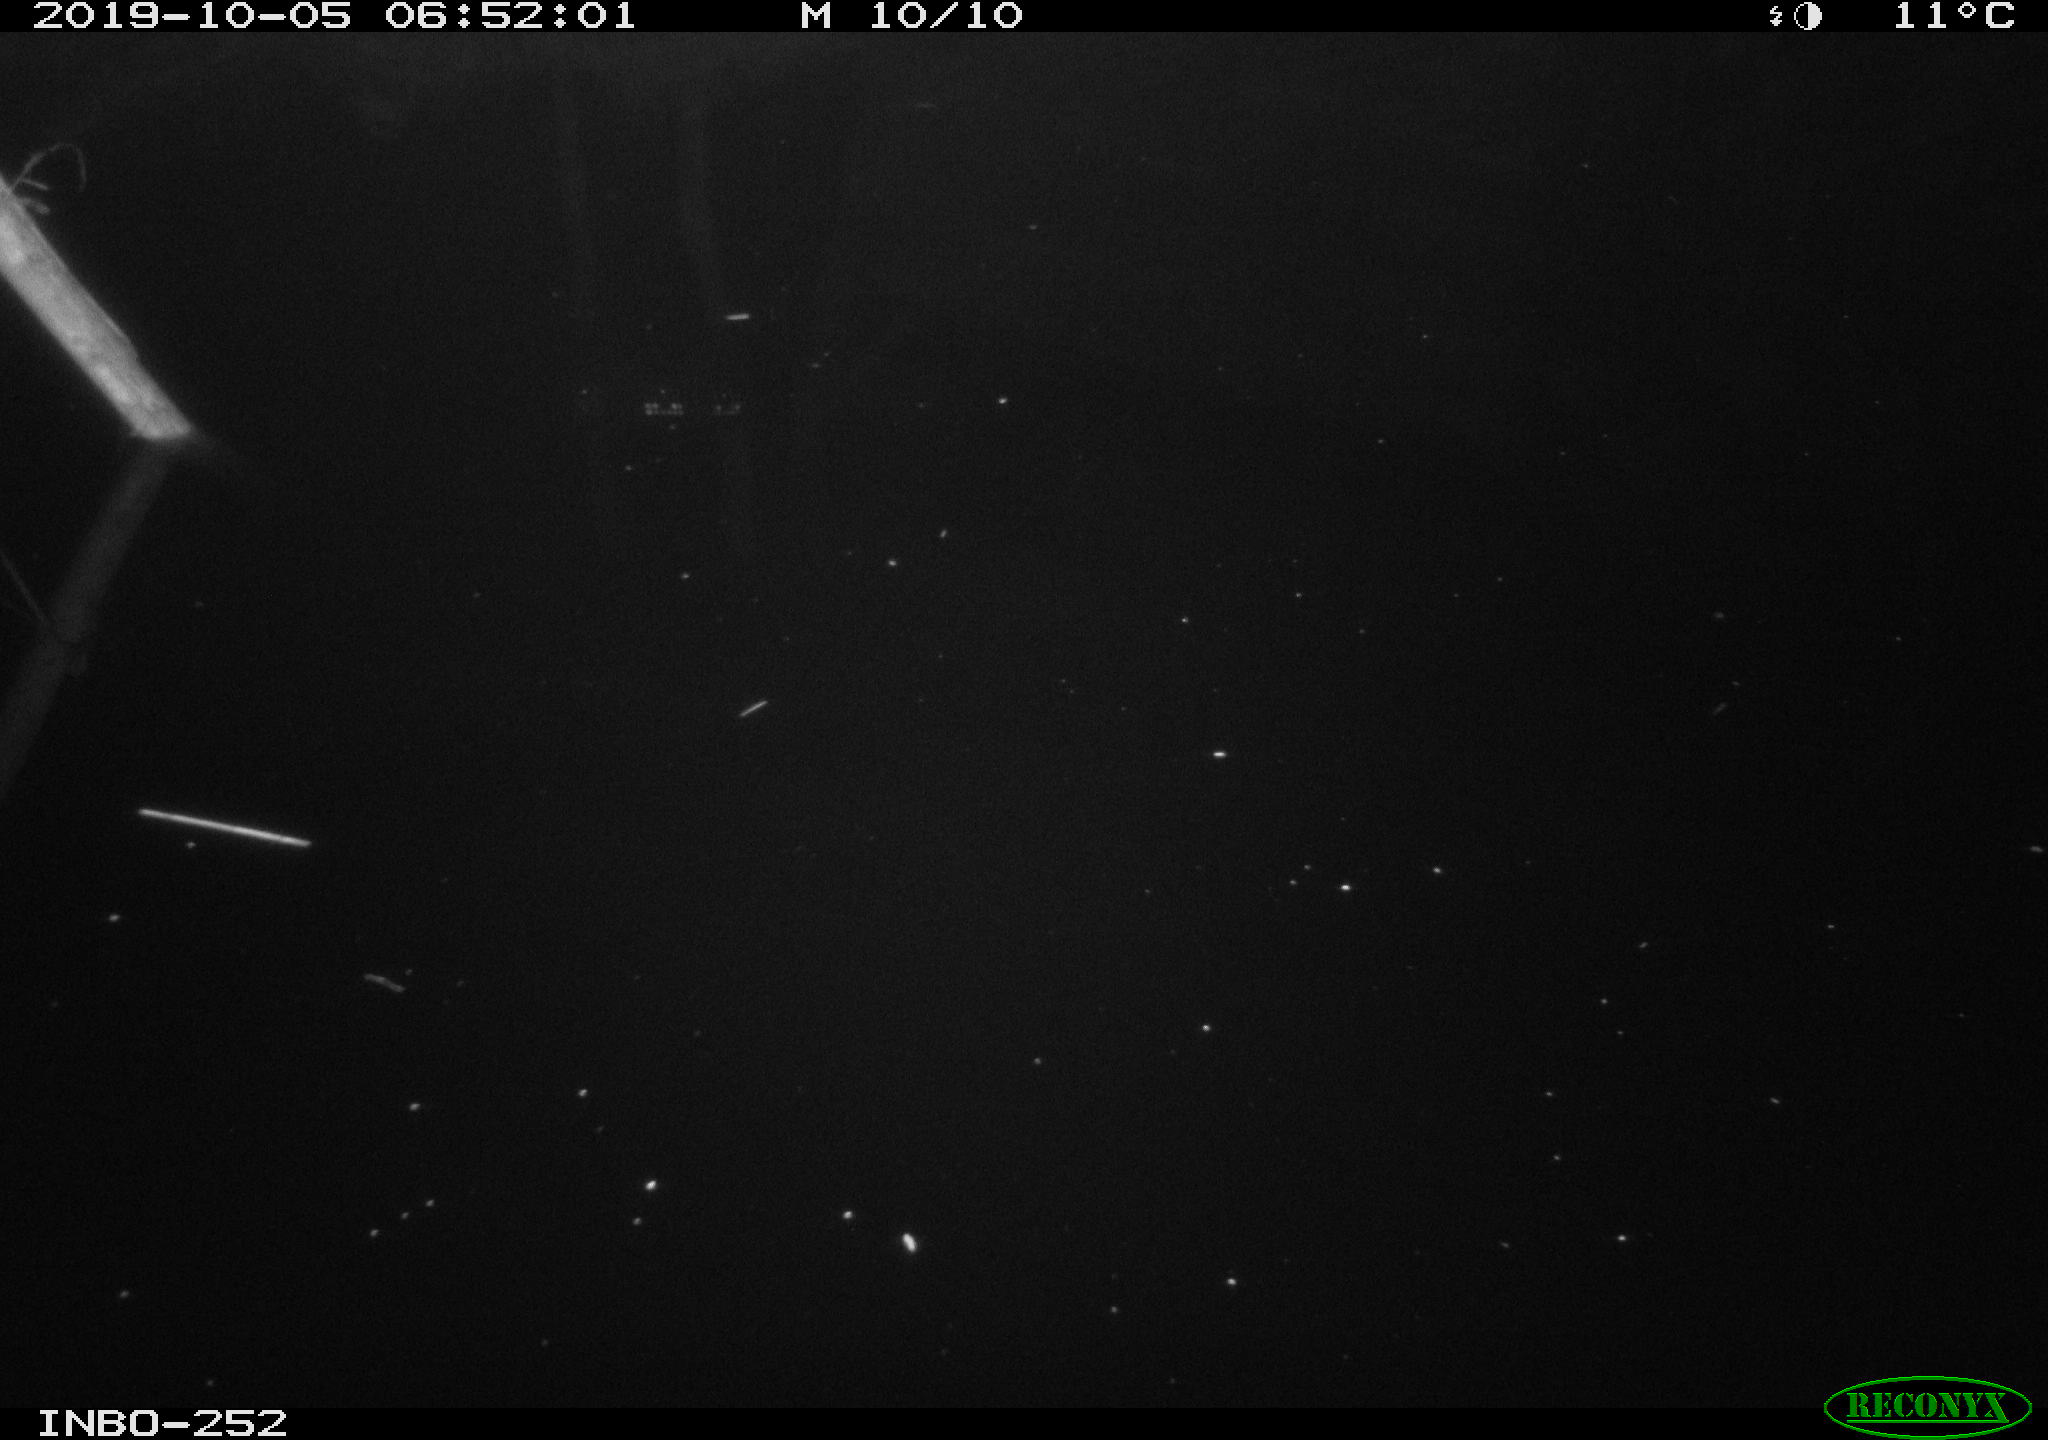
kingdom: Animalia
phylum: Chordata
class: Aves
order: Anseriformes
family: Anatidae
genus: Anas
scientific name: Anas platyrhynchos
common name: Mallard
